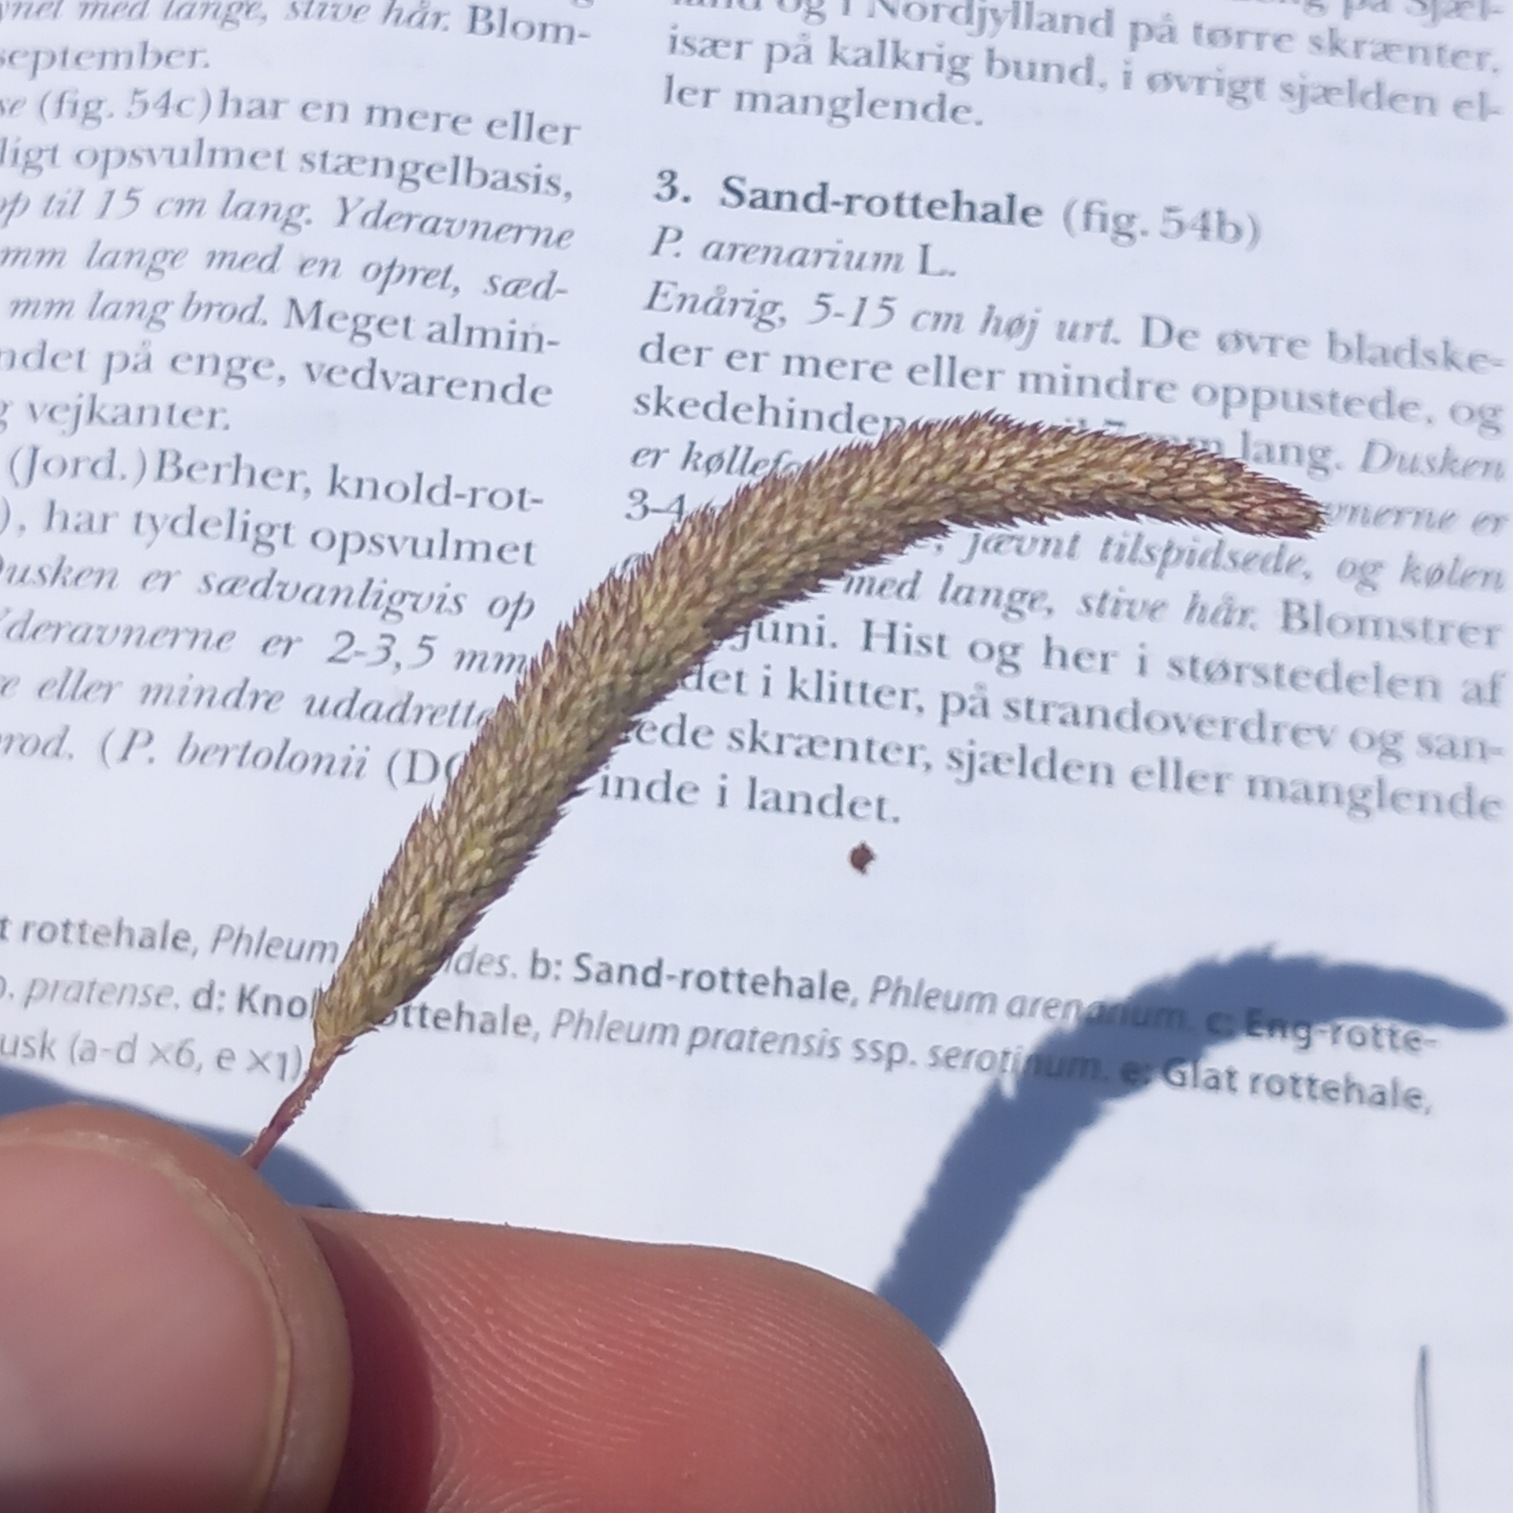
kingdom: Plantae
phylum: Tracheophyta
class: Liliopsida
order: Poales
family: Poaceae
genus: Phleum
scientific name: Phleum phleoides
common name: Glat rottehale
